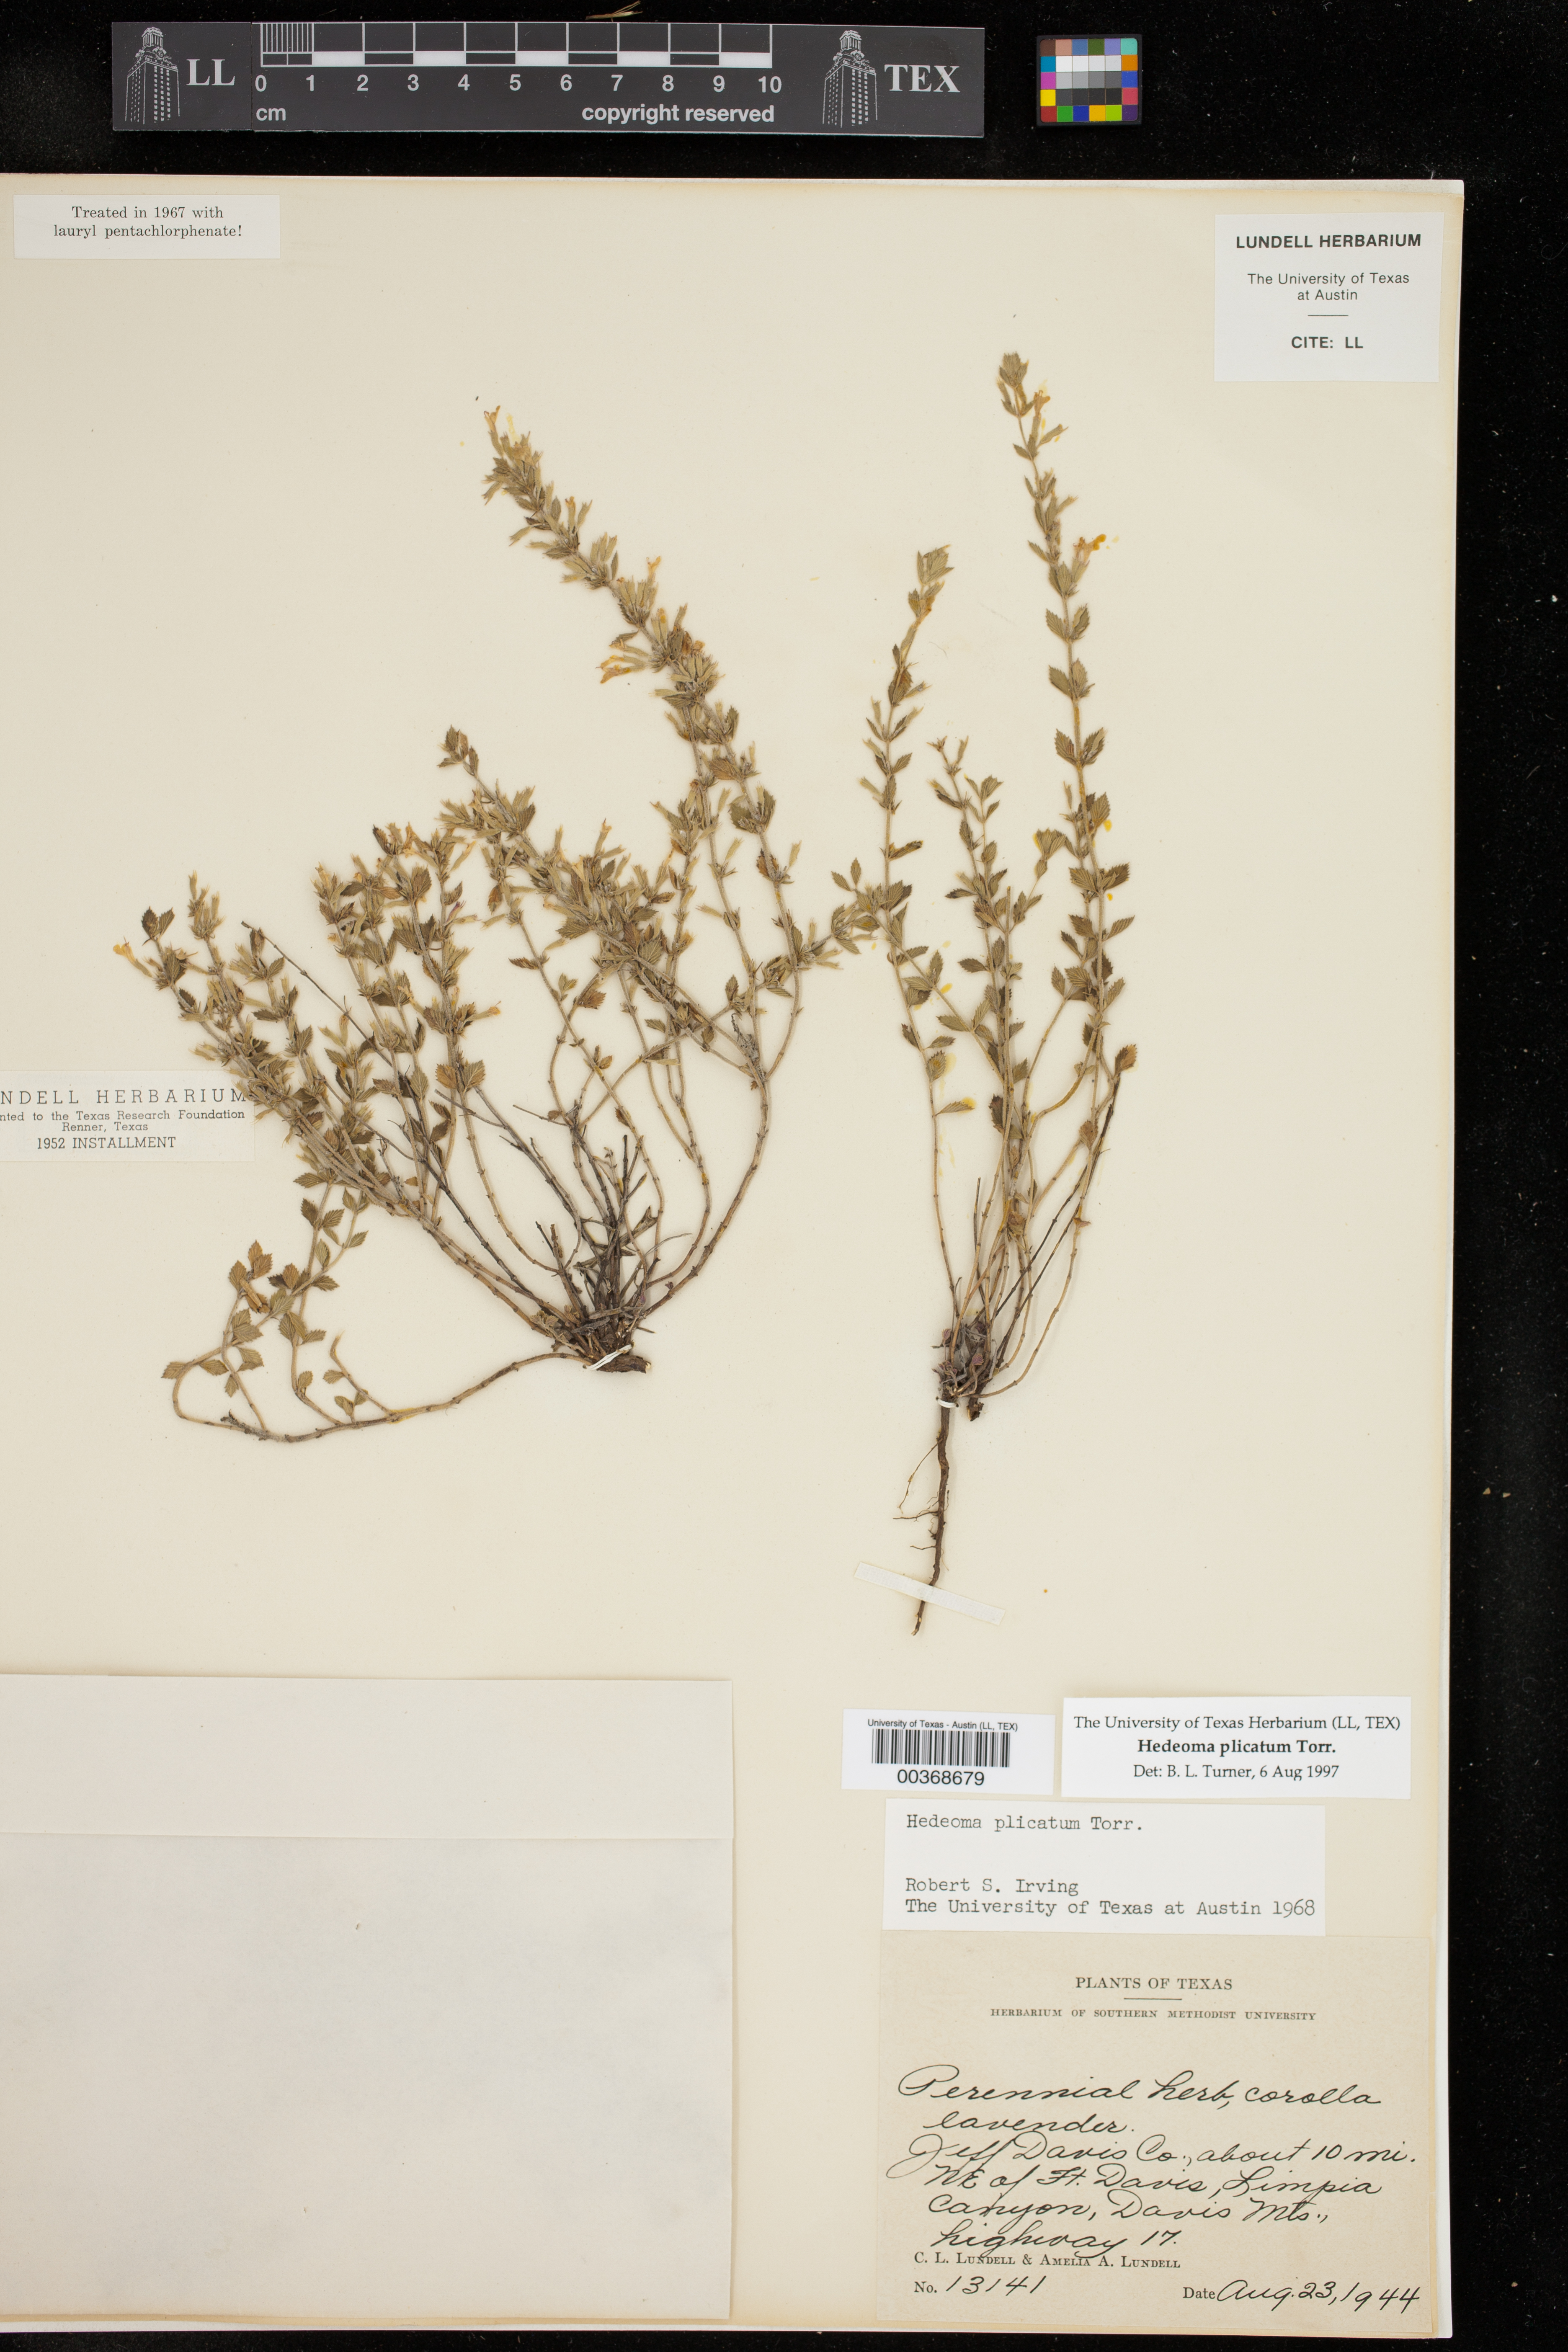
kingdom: Plantae
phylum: Tracheophyta
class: Magnoliopsida
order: Lamiales
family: Lamiaceae
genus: Hedeoma
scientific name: Hedeoma plicata
